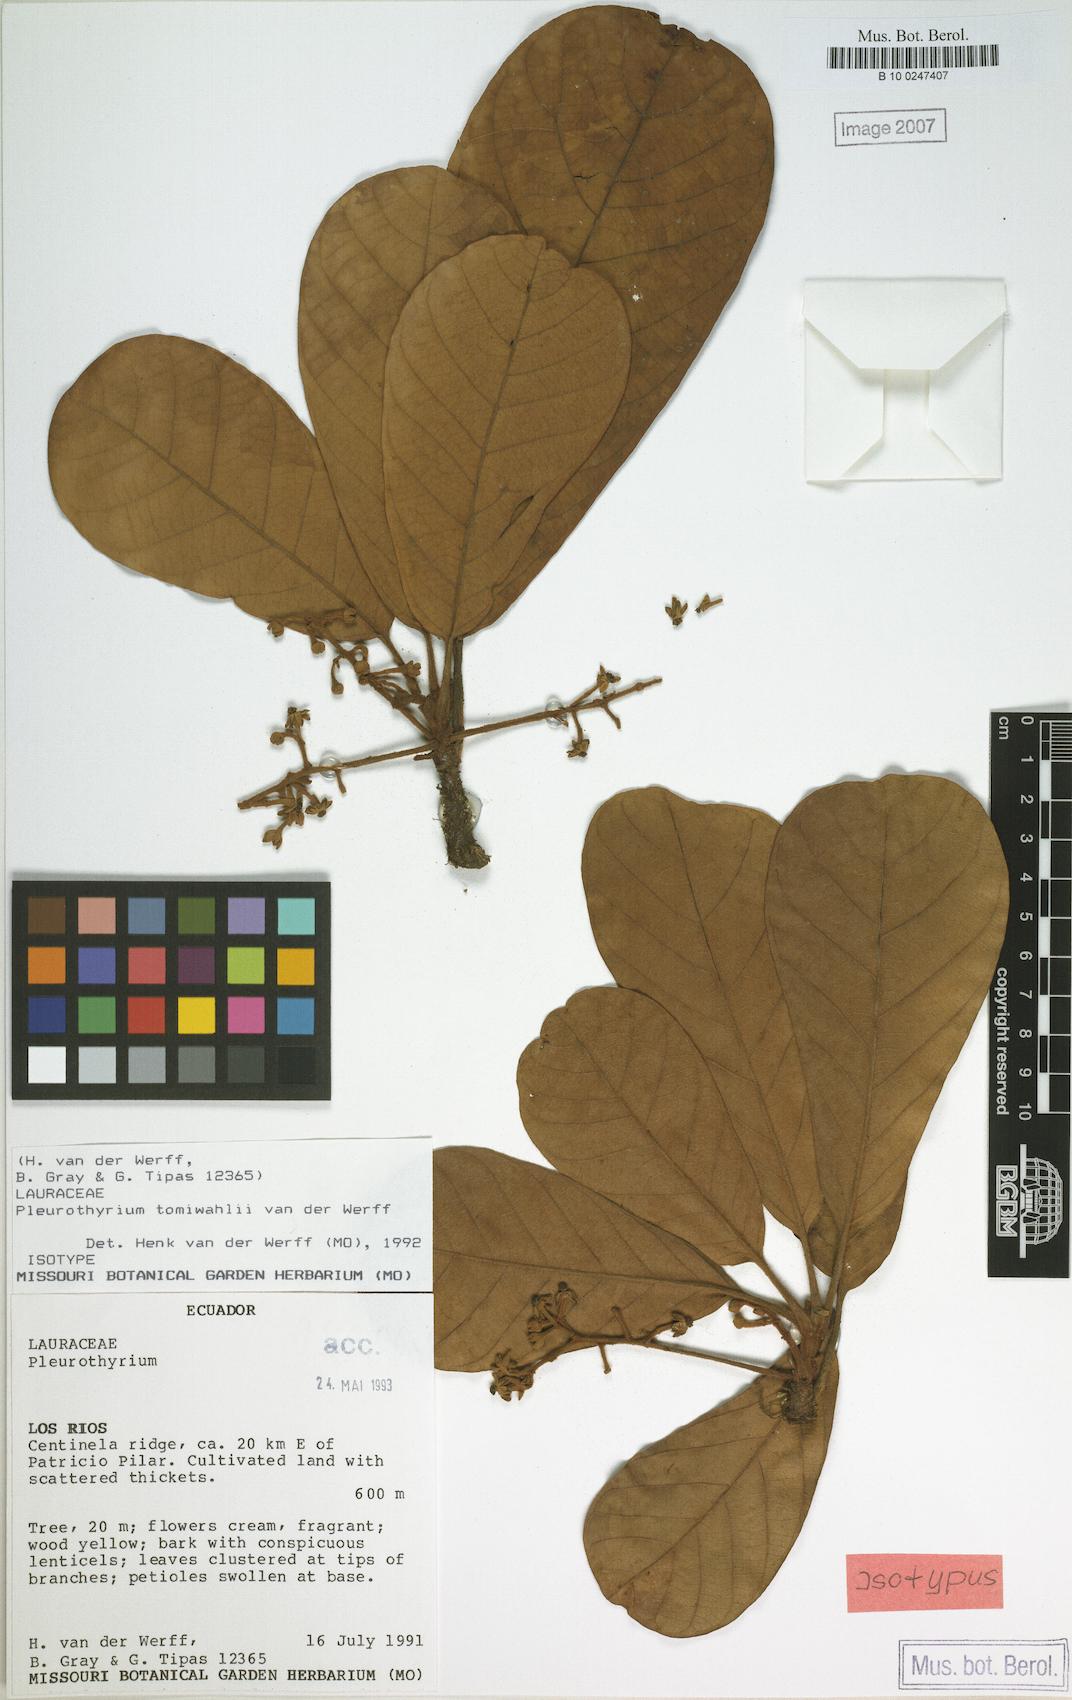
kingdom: Plantae
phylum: Tracheophyta
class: Magnoliopsida
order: Laurales
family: Lauraceae
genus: Pleurothyrium
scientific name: Pleurothyrium tomiwahlii
